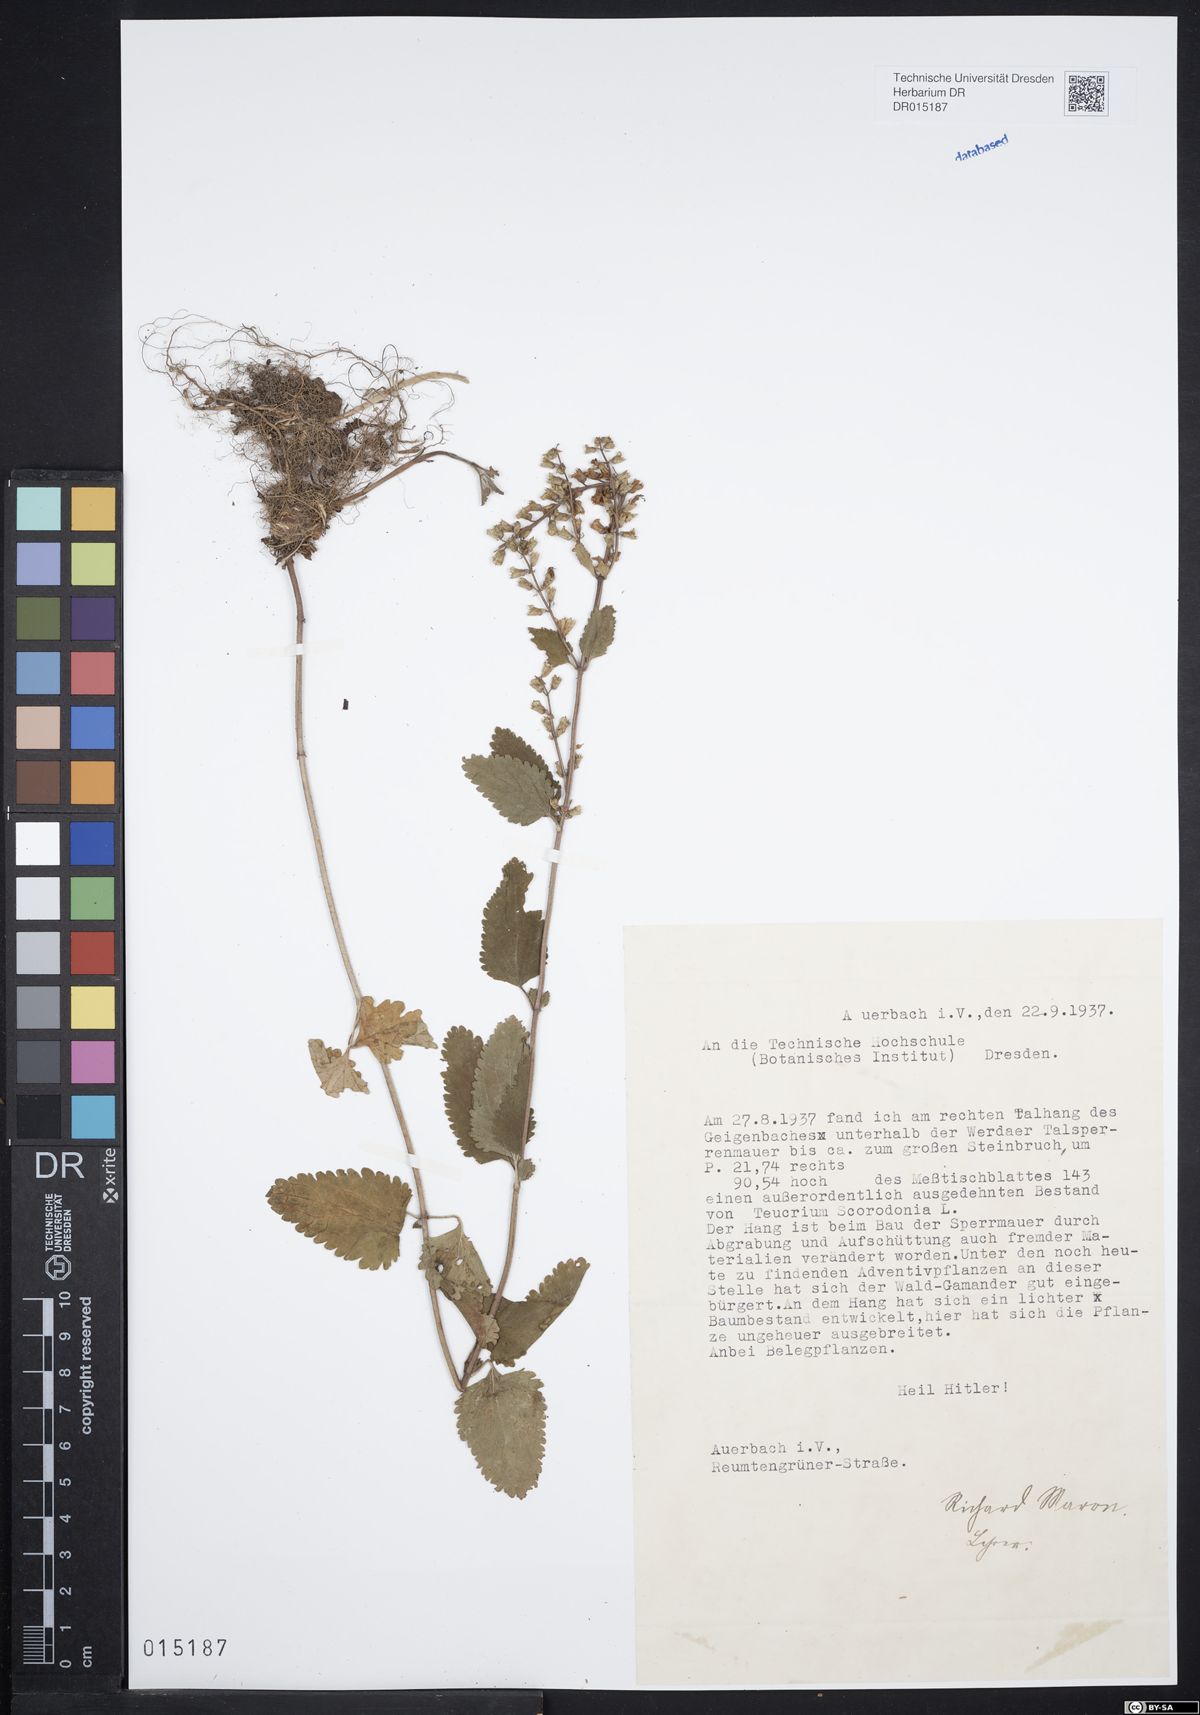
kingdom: Plantae
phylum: Tracheophyta
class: Magnoliopsida
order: Lamiales
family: Lamiaceae
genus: Teucrium
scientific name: Teucrium scorodonia
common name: Woodland germander
